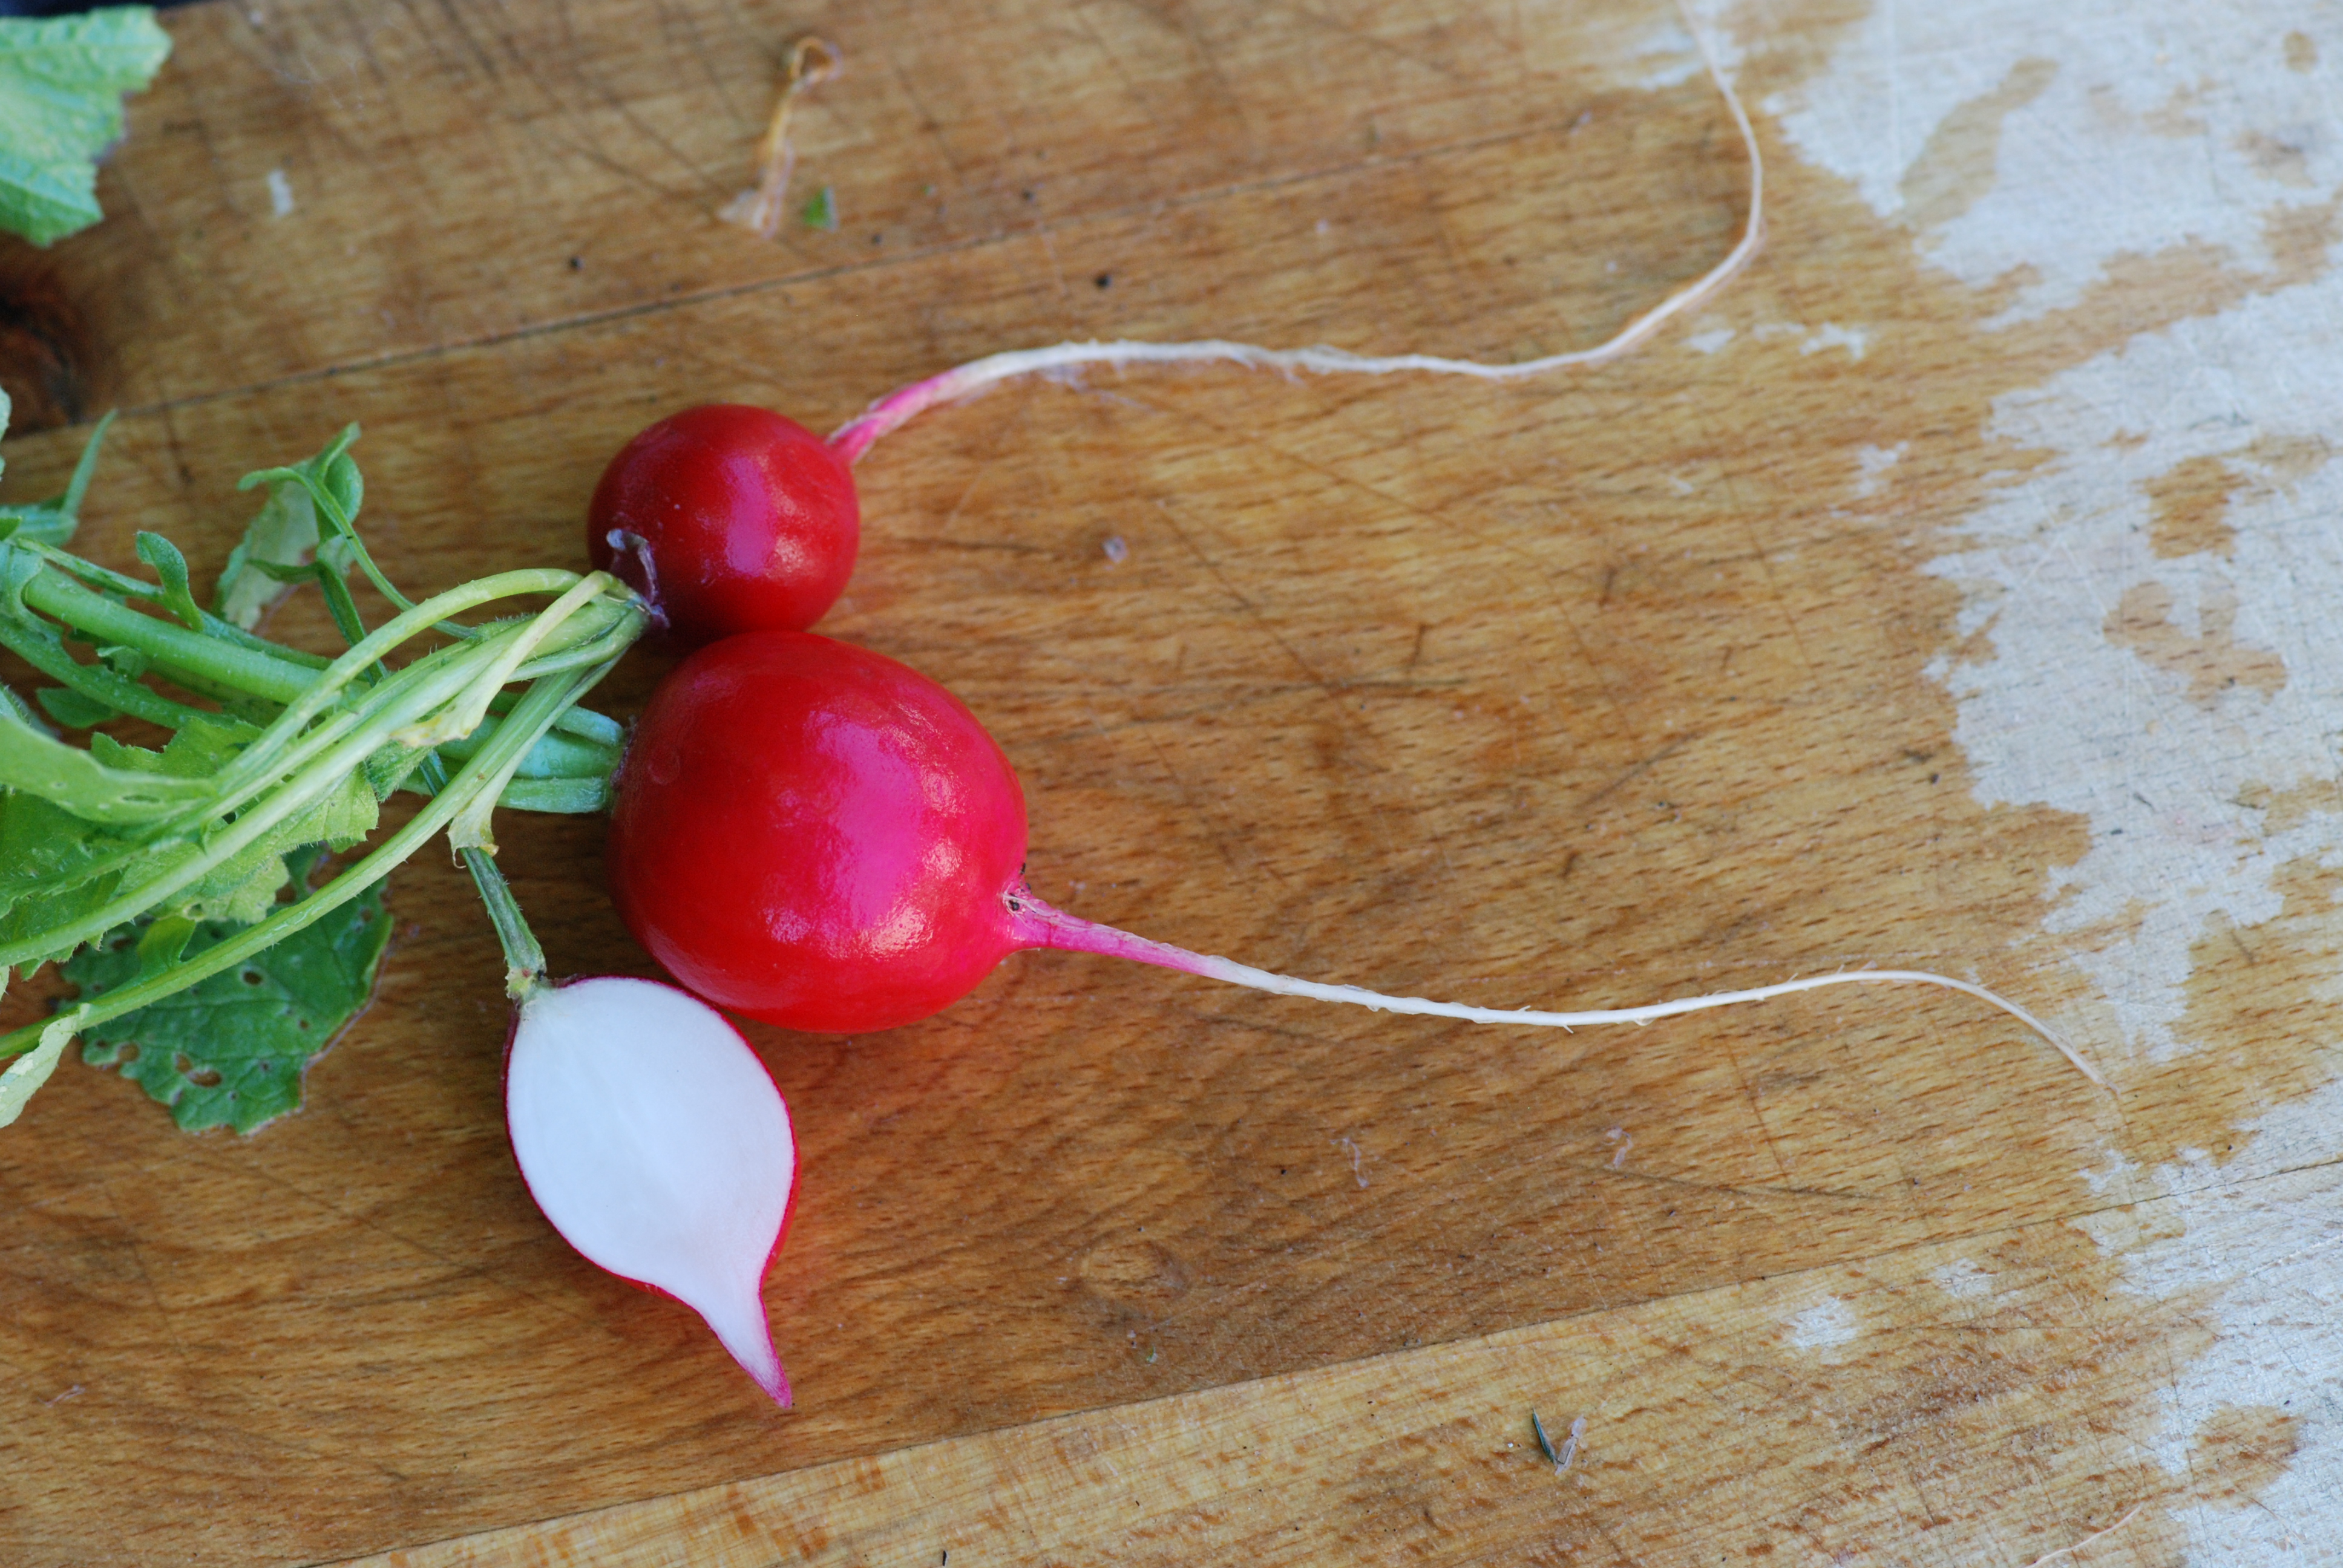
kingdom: Plantae
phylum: Tracheophyta
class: Magnoliopsida
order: Brassicales
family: Brassicaceae
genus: Raphanus
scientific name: Raphanus sativus
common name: Cultivated radish
